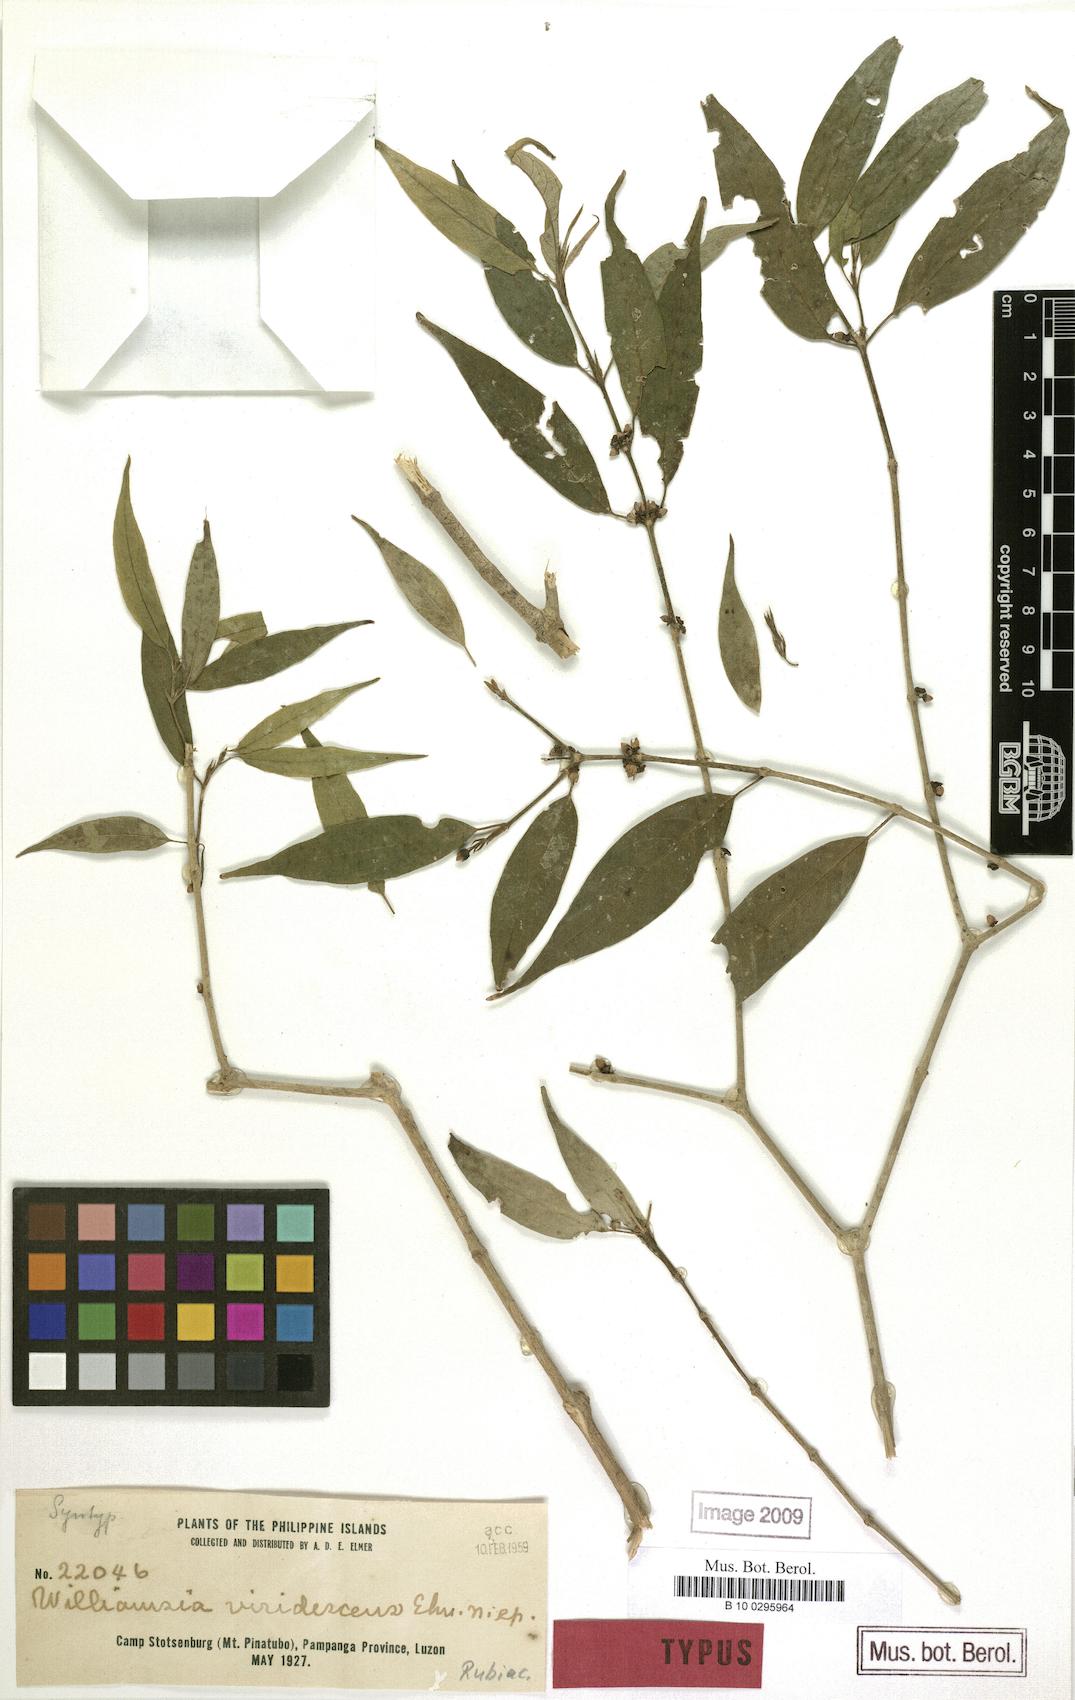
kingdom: Plantae
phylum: Tracheophyta
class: Magnoliopsida
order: Gentianales
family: Rubiaceae
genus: Praravinia
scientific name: Praravinia viridescens
